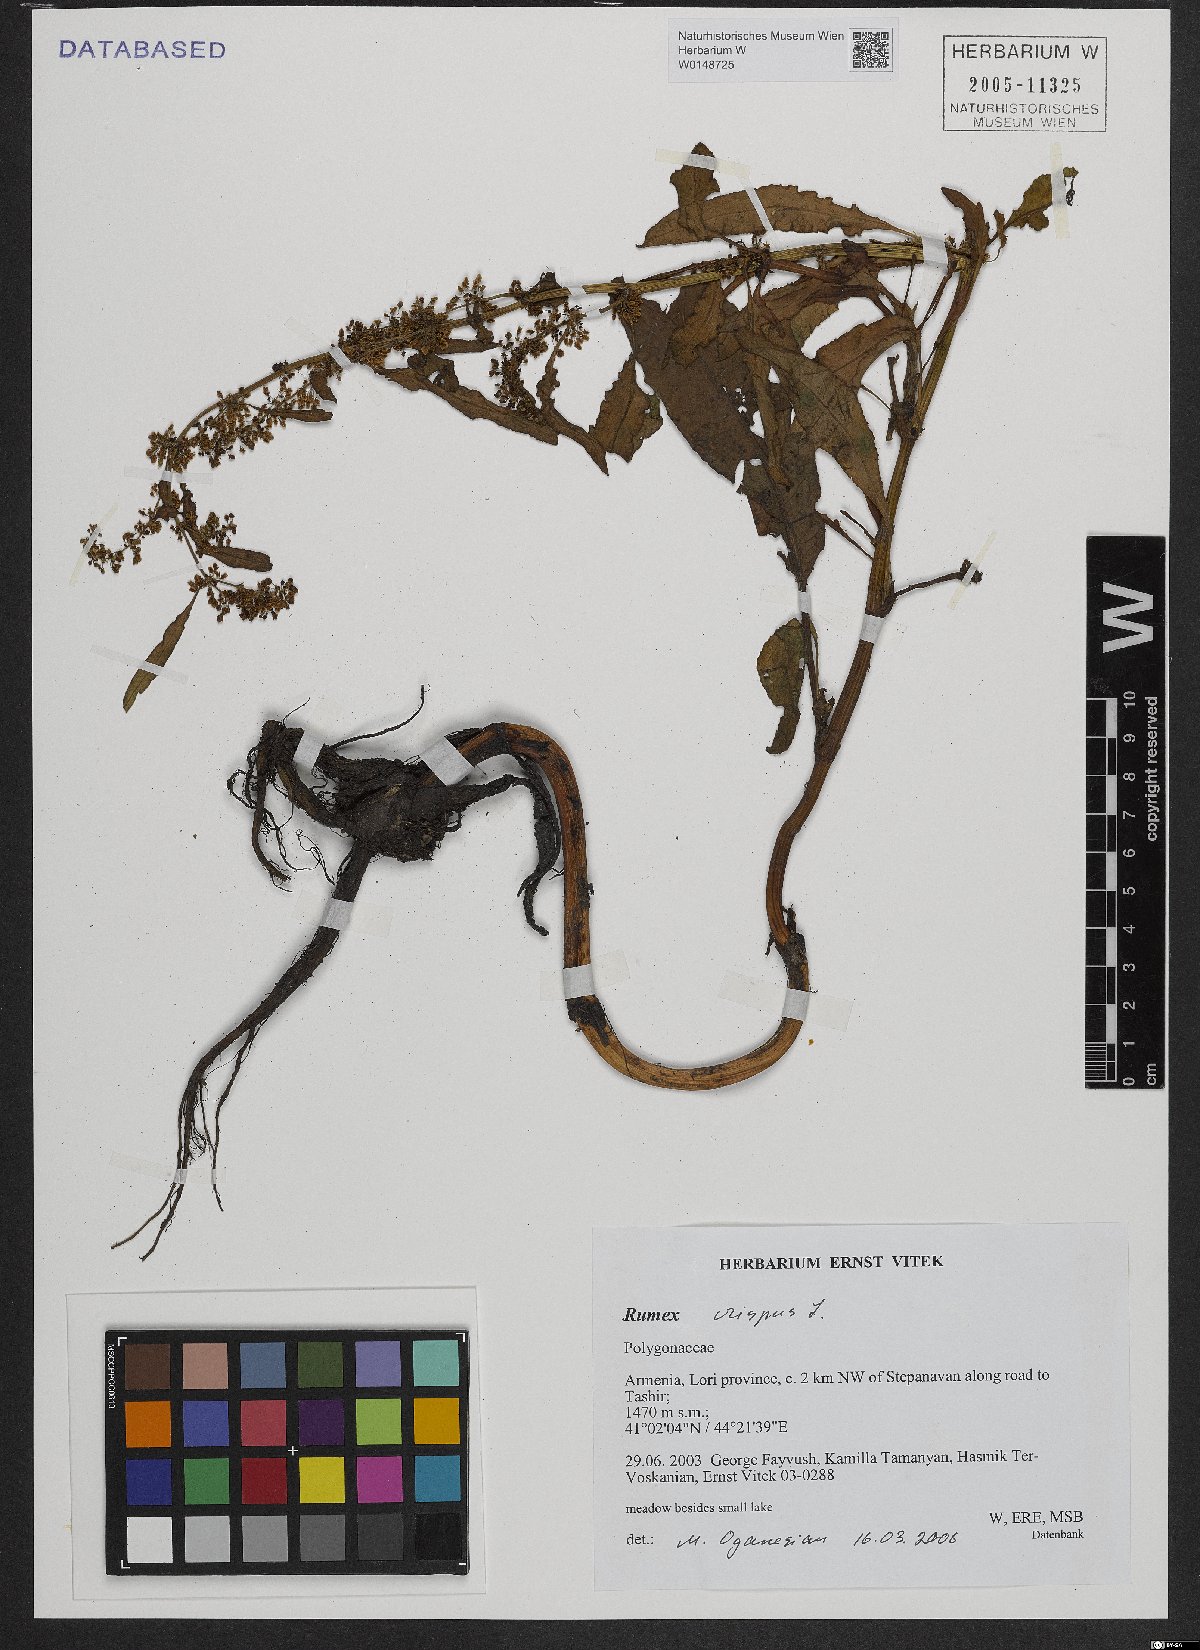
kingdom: Plantae
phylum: Tracheophyta
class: Magnoliopsida
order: Caryophyllales
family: Polygonaceae
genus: Rumex
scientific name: Rumex crispus
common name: Curled dock
